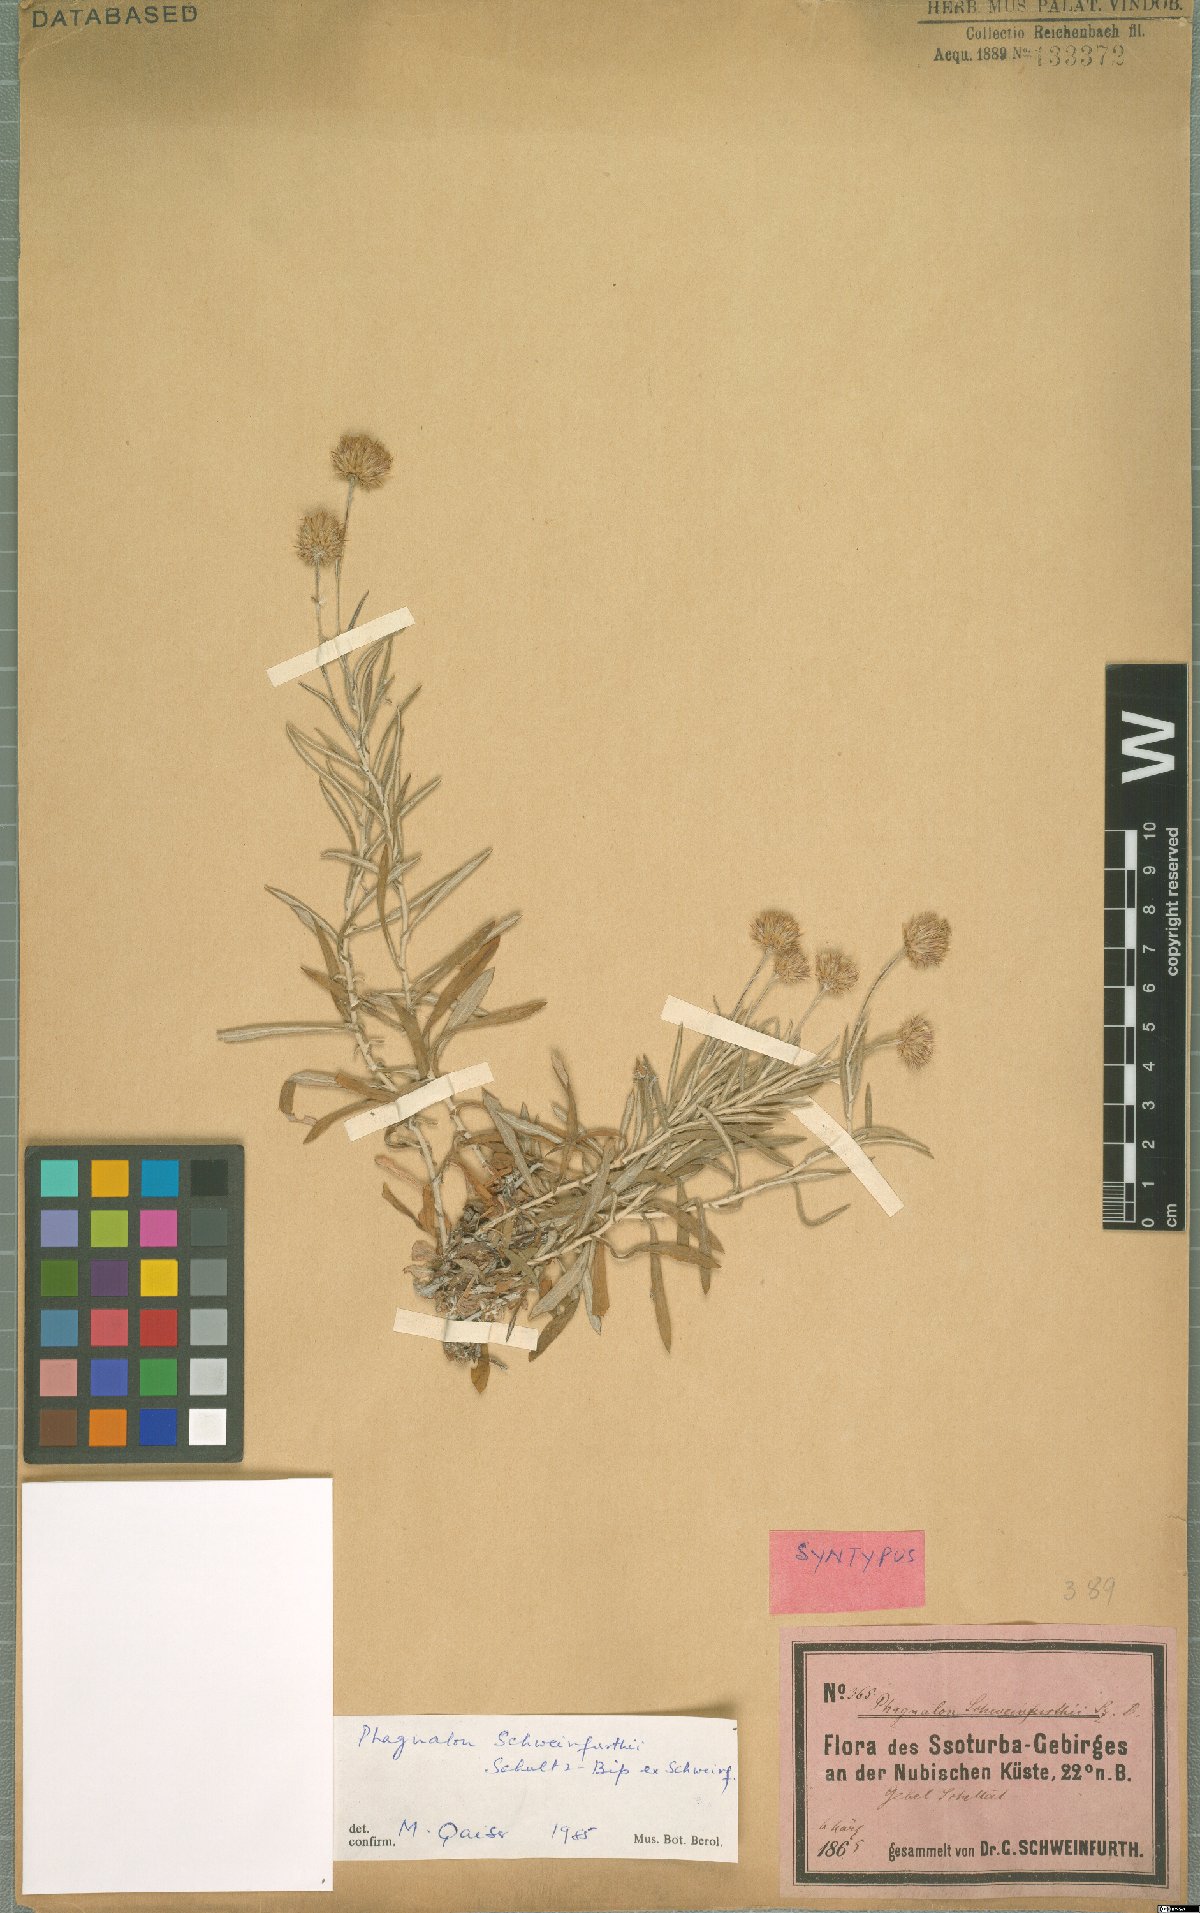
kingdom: Plantae
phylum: Tracheophyta
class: Magnoliopsida
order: Asterales
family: Asteraceae
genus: Phagnalon
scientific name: Phagnalon schweinfurthii
